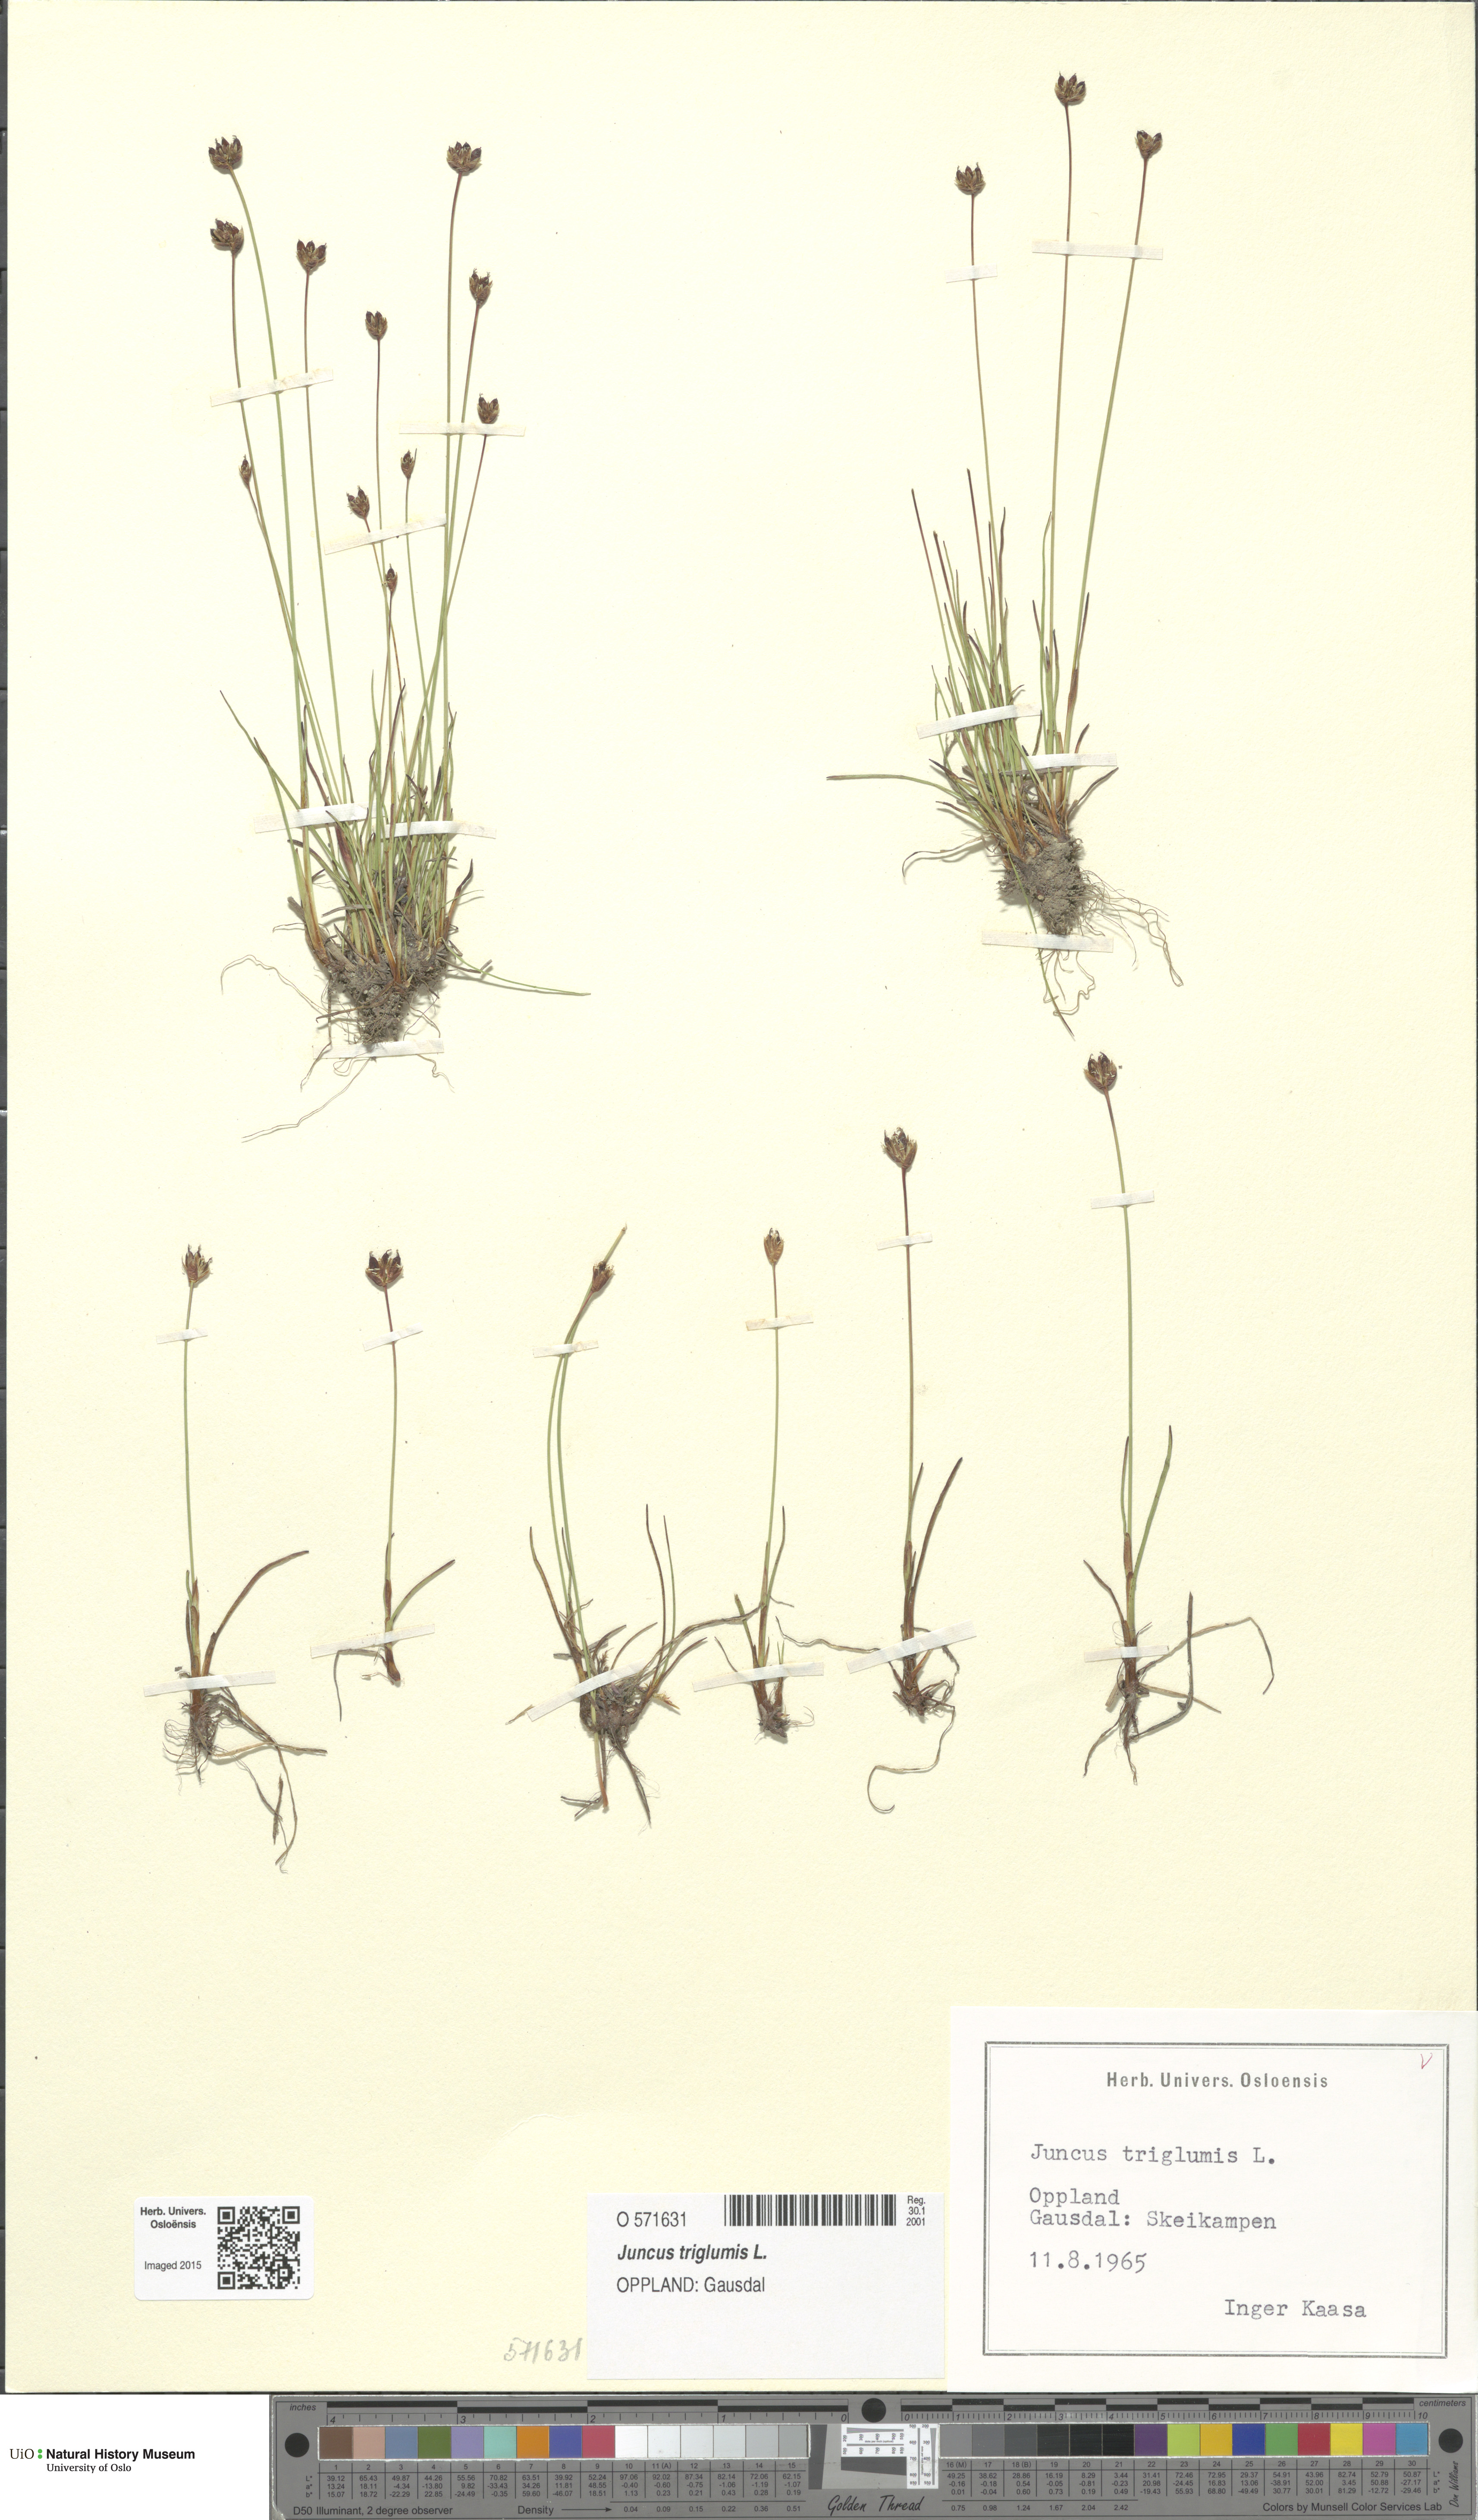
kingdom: Plantae
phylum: Tracheophyta
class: Liliopsida
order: Poales
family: Juncaceae
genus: Juncus
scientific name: Juncus triglumis
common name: Three-flowered rush
